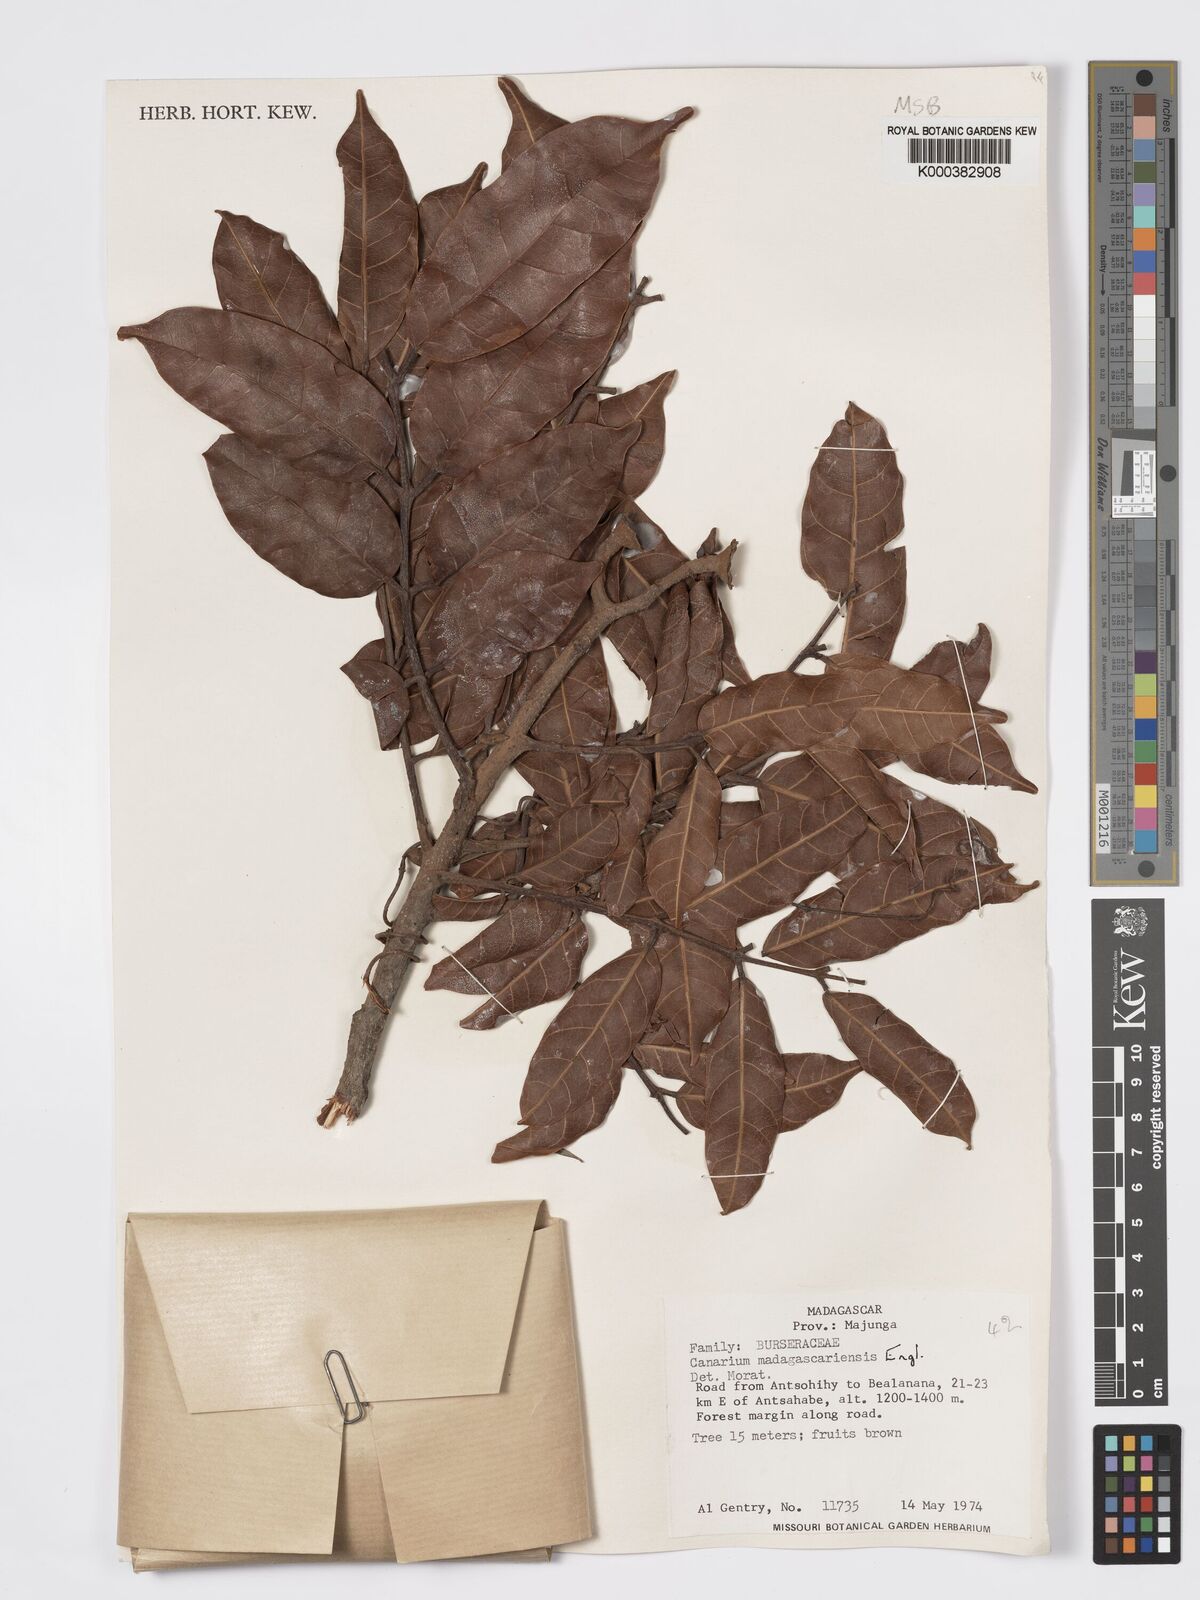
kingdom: Plantae
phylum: Tracheophyta
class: Magnoliopsida
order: Sapindales
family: Burseraceae
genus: Canarium
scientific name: Canarium madagascariense
